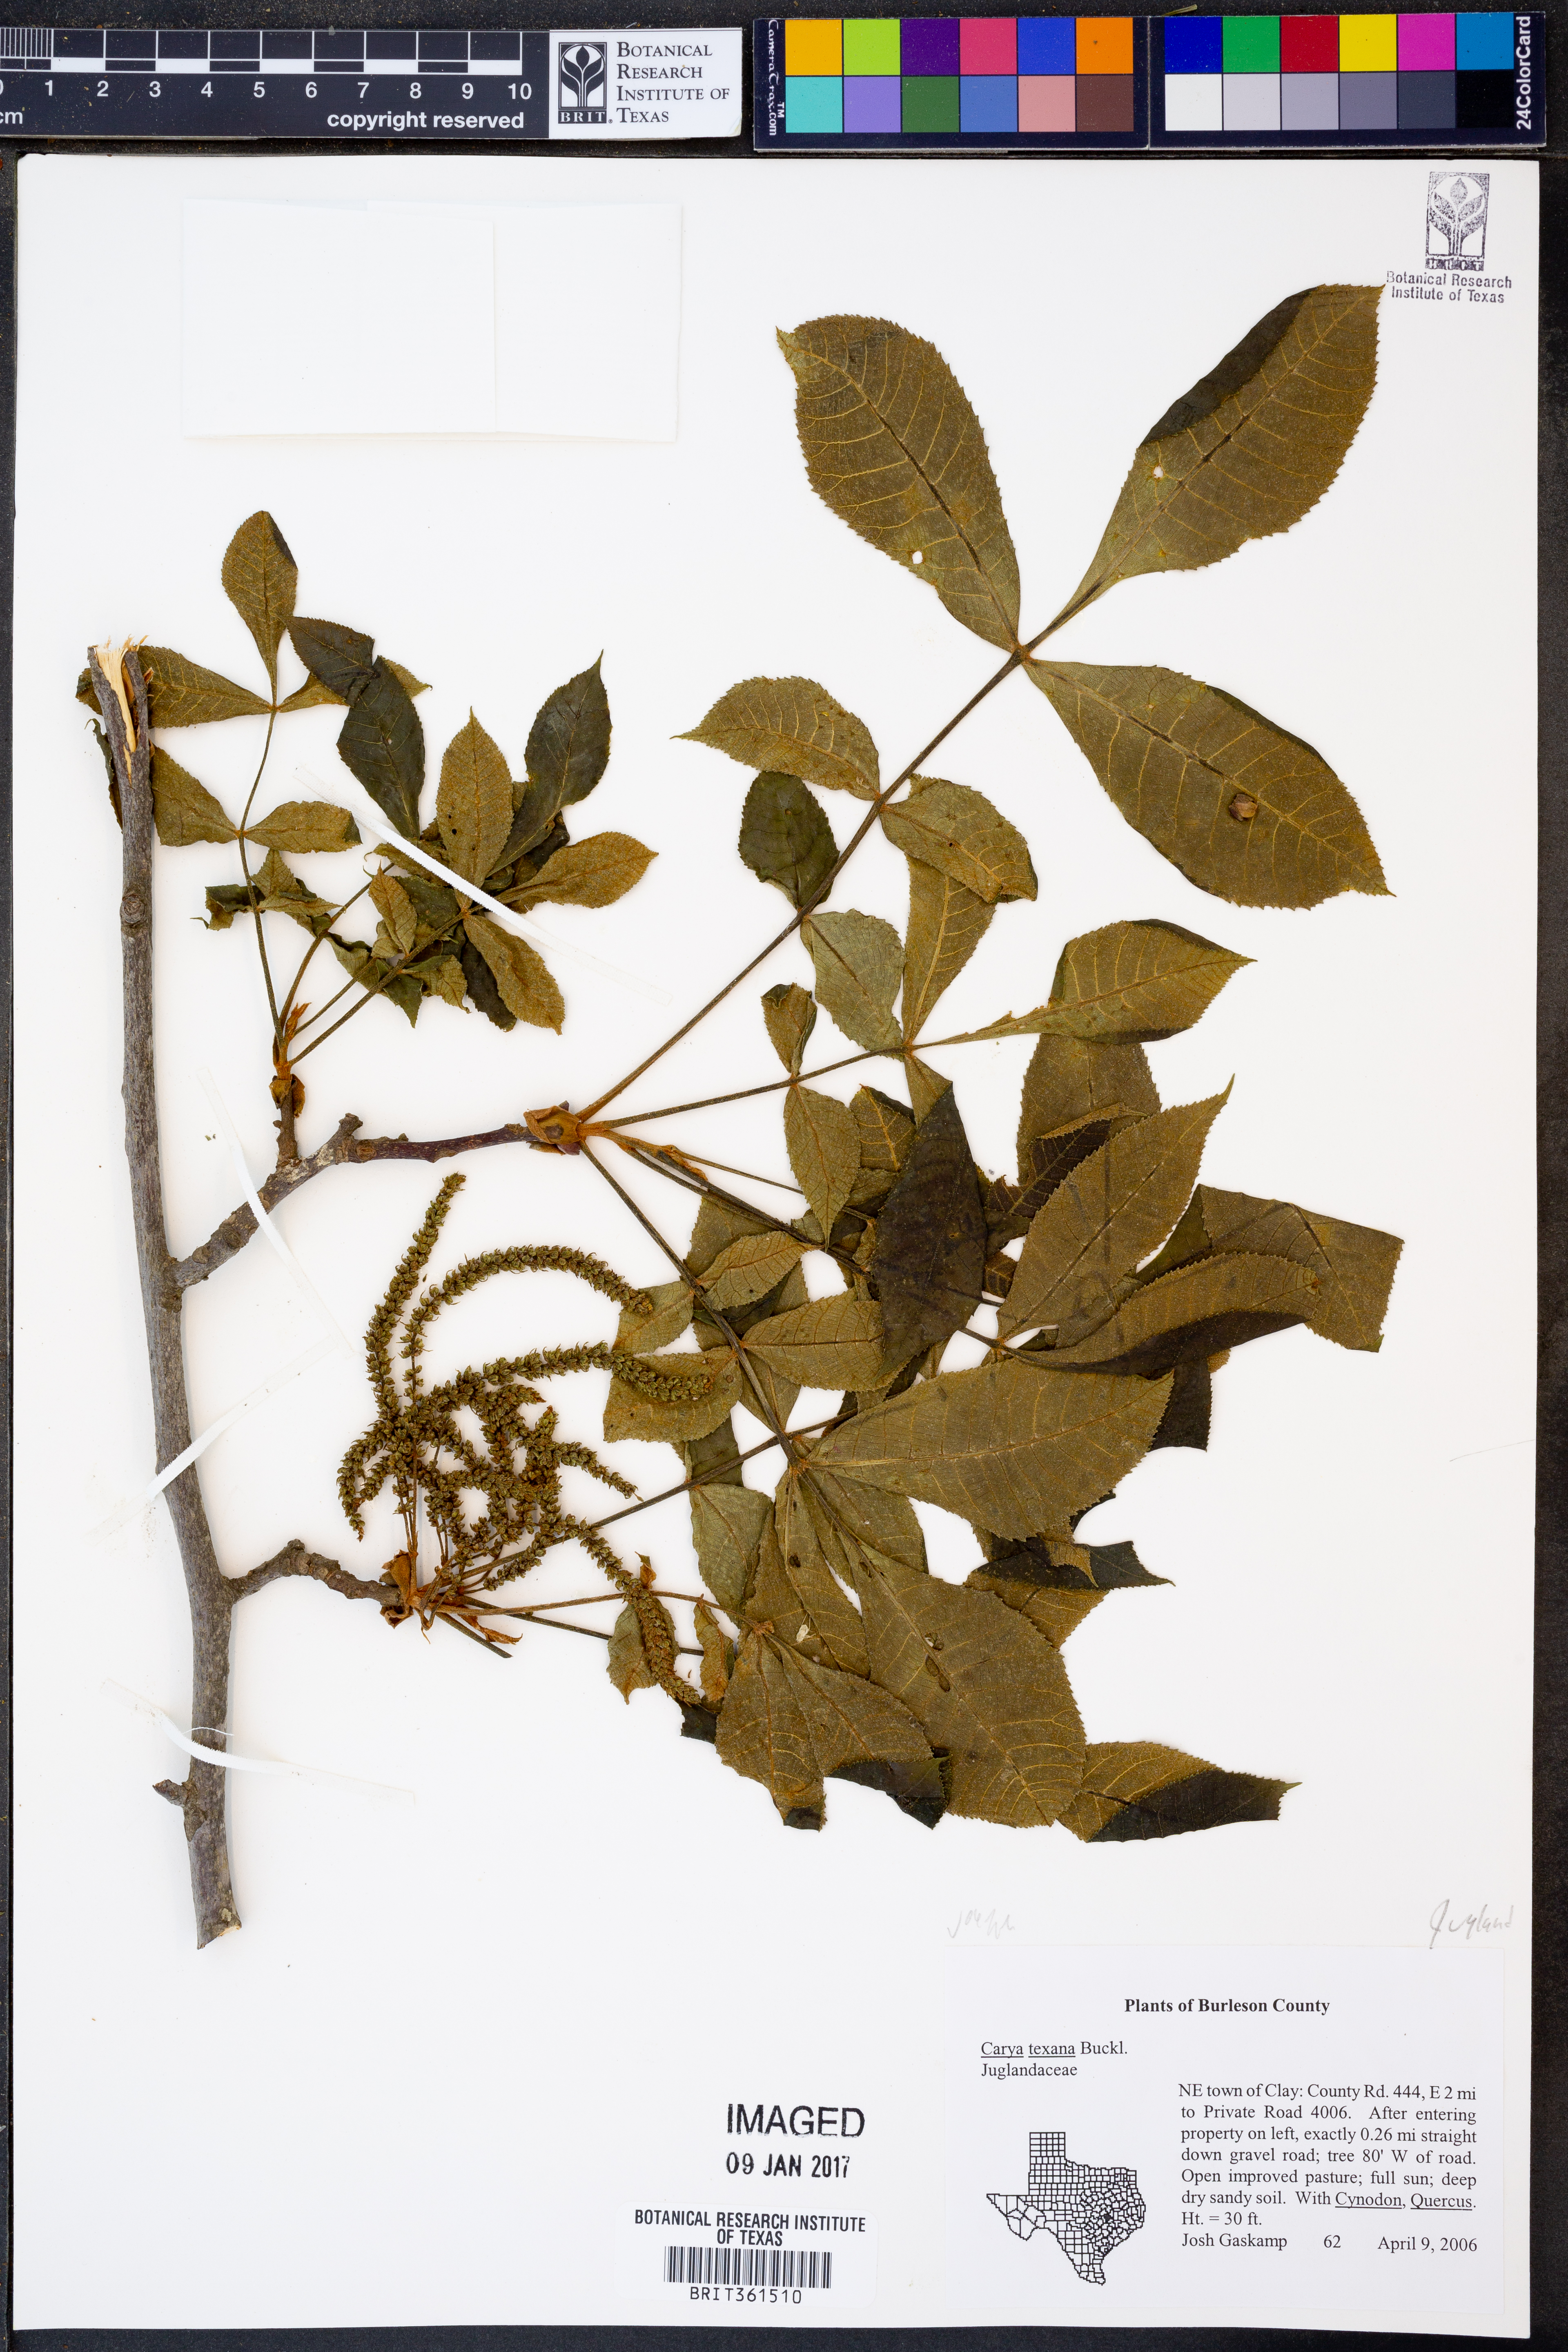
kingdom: Plantae
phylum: Tracheophyta
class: Magnoliopsida
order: Fagales
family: Juglandaceae
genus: Carya
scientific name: Carya texana
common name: Black hickory
